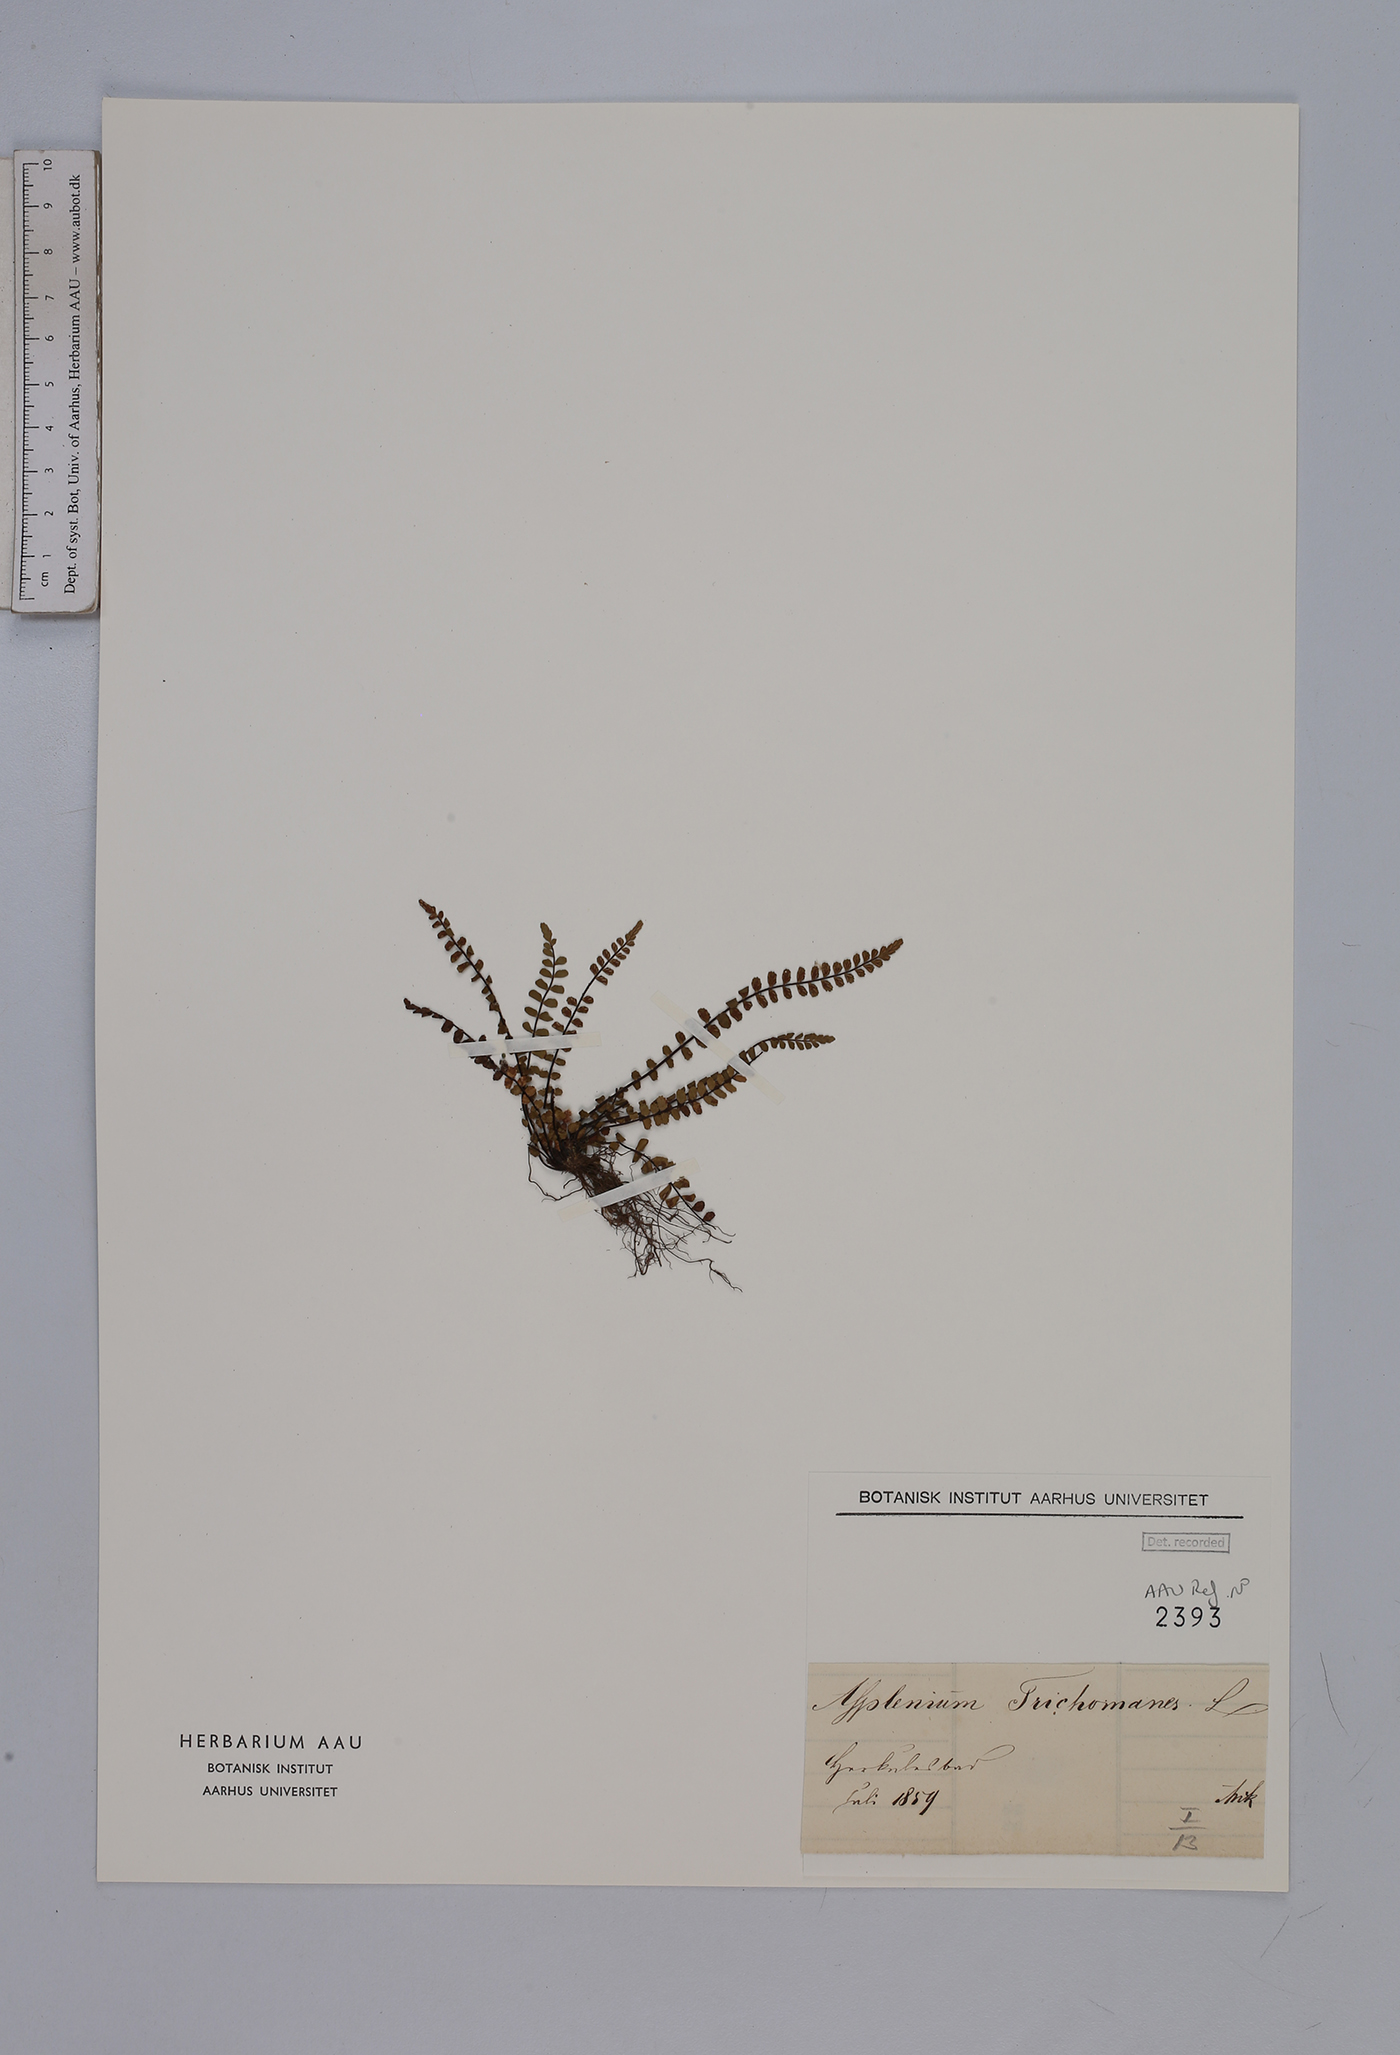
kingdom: Plantae
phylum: Tracheophyta
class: Polypodiopsida
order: Polypodiales
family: Aspleniaceae
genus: Asplenium
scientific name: Asplenium trichomanes
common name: Maidenhair spleenwort
